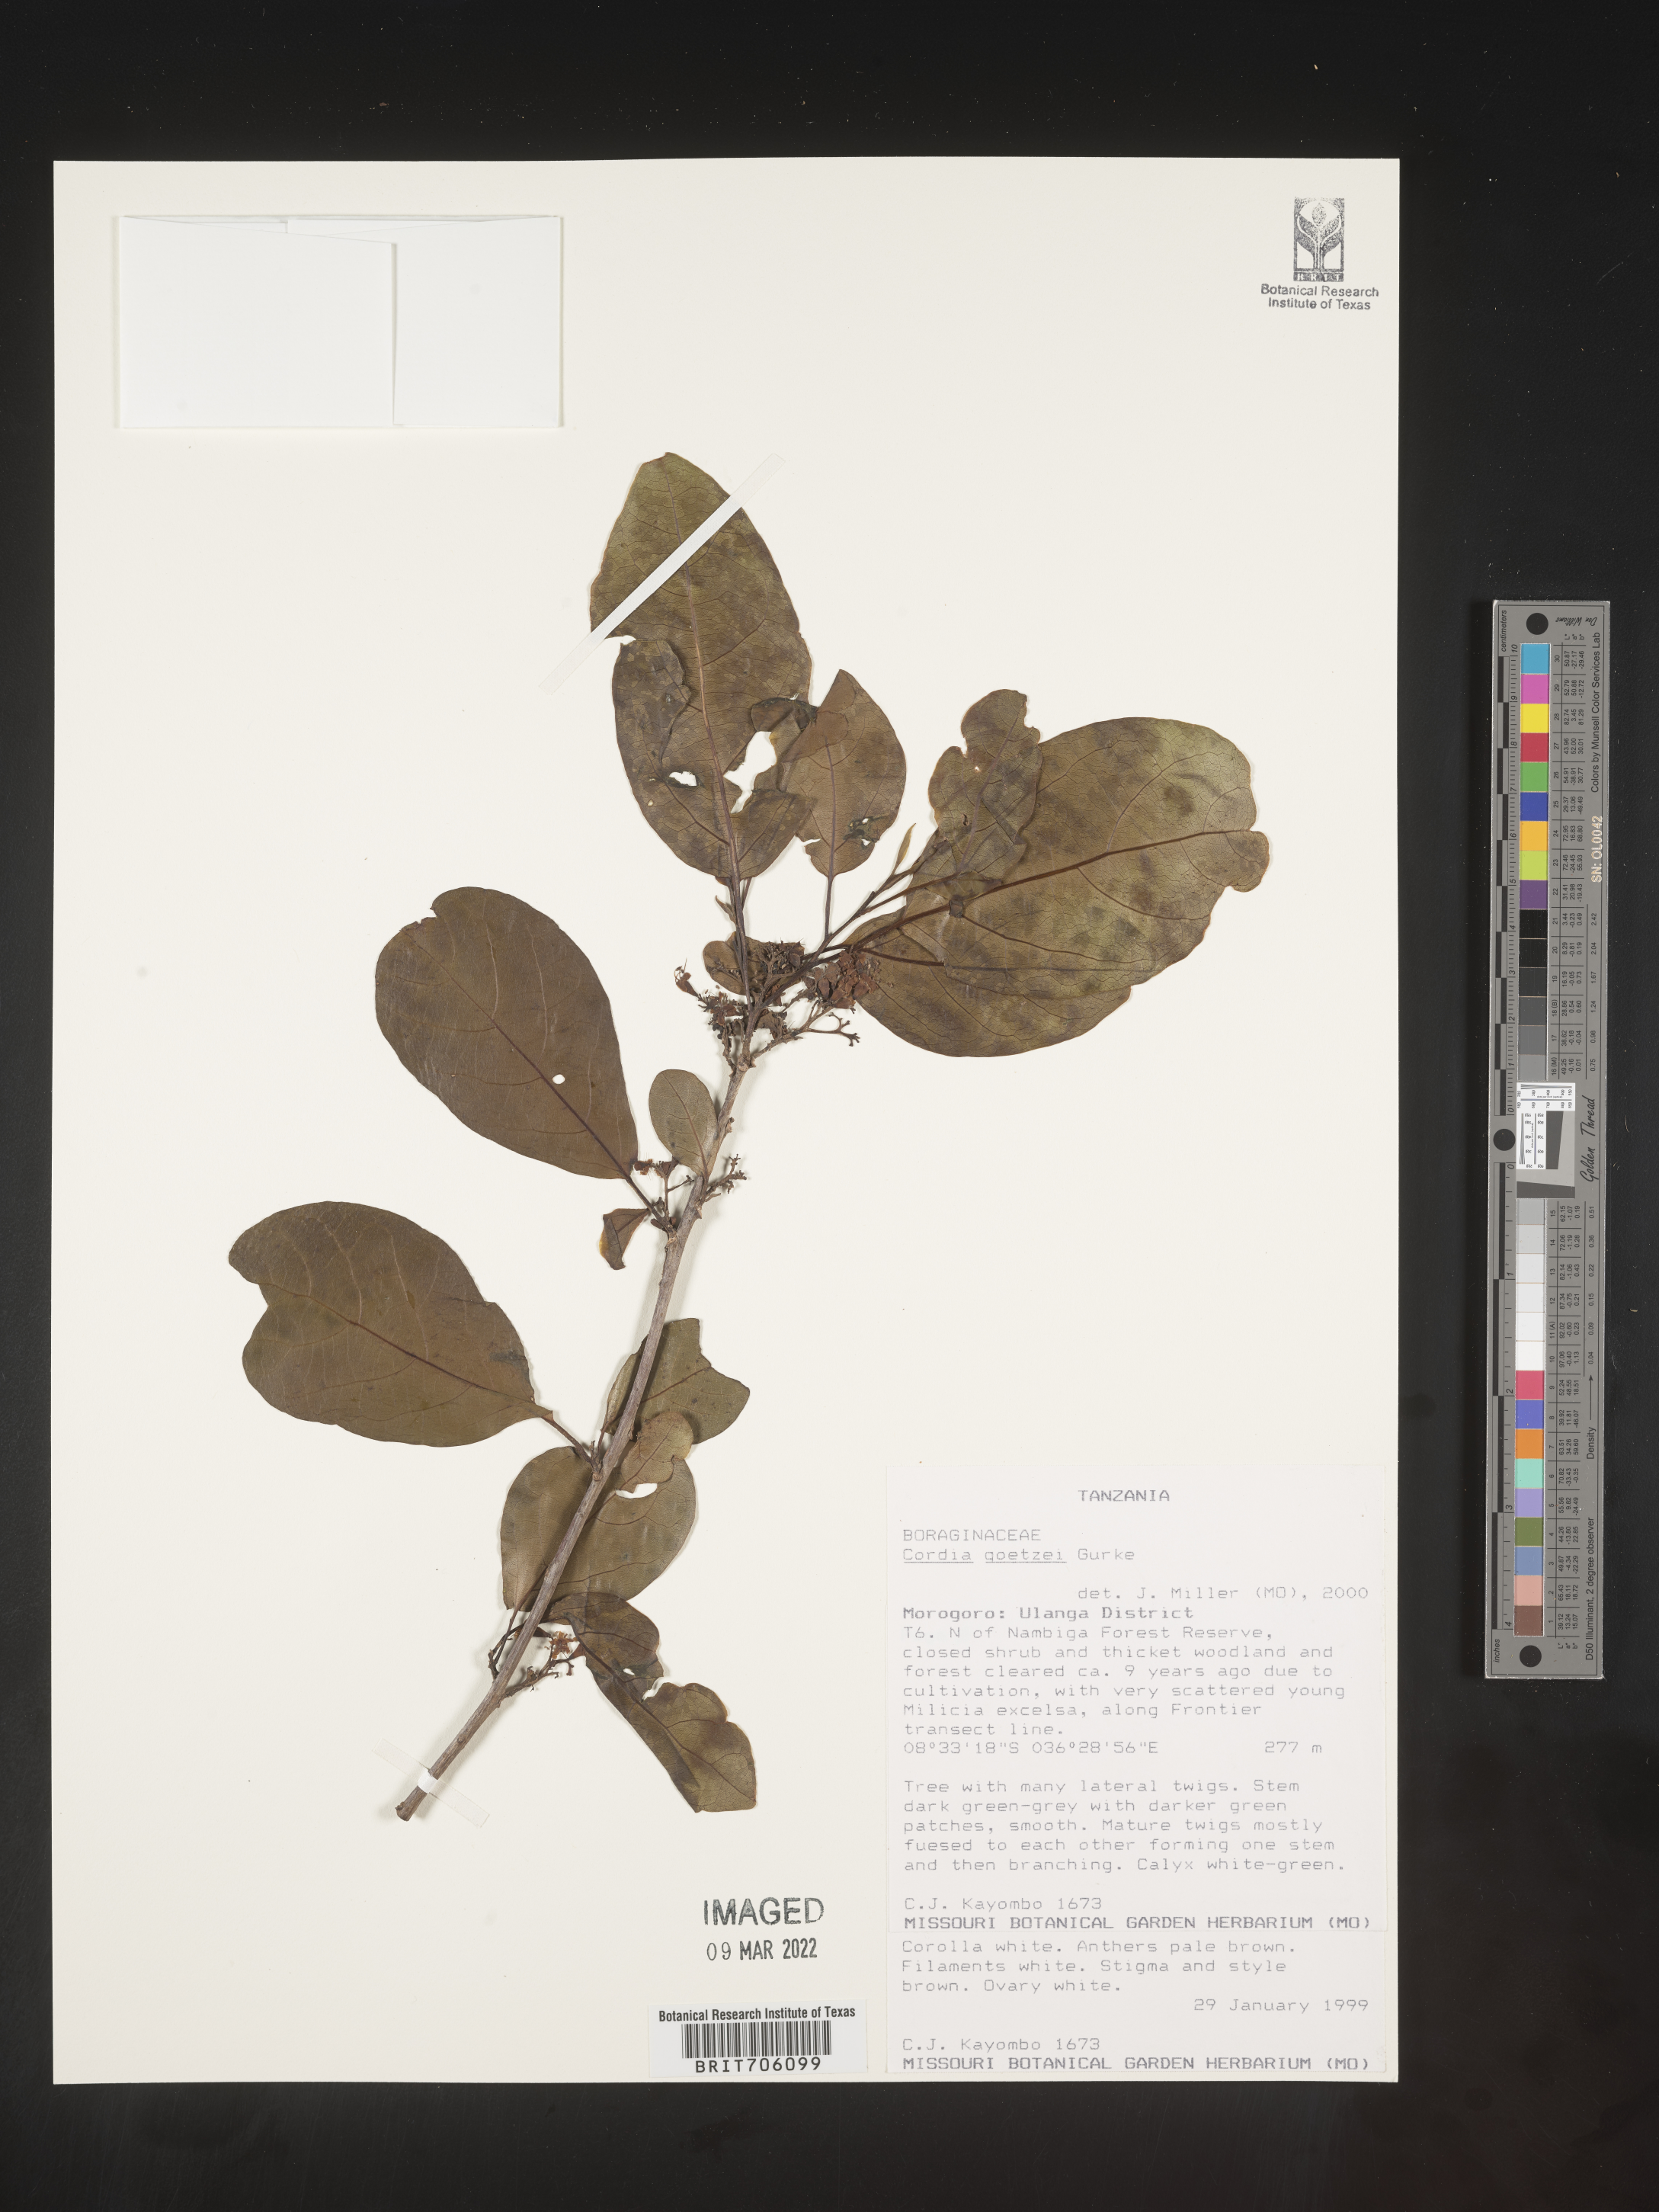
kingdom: Plantae
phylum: Tracheophyta
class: Magnoliopsida
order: Boraginales
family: Cordiaceae
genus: Cordia
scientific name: Cordia
